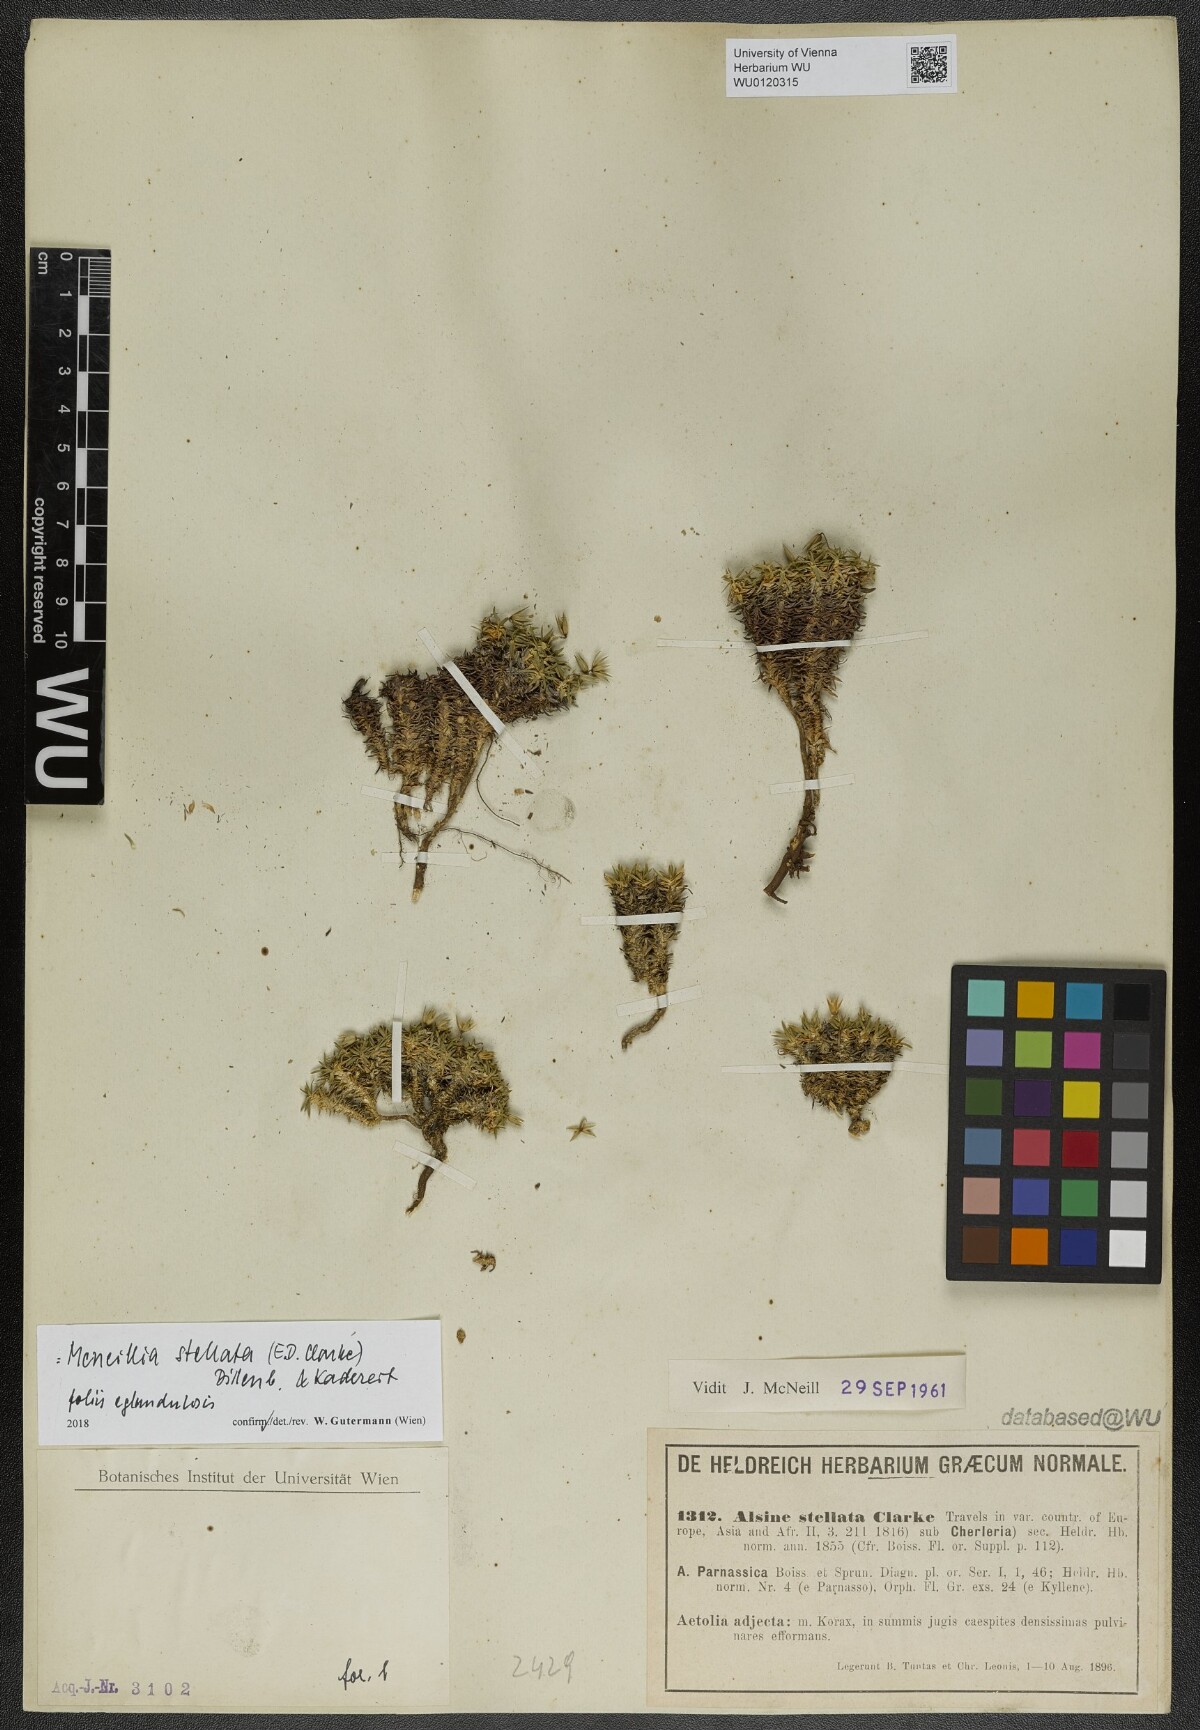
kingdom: Plantae
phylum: Tracheophyta
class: Magnoliopsida
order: Caryophyllales
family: Caryophyllaceae
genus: Mcneillia
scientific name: Mcneillia stellata
